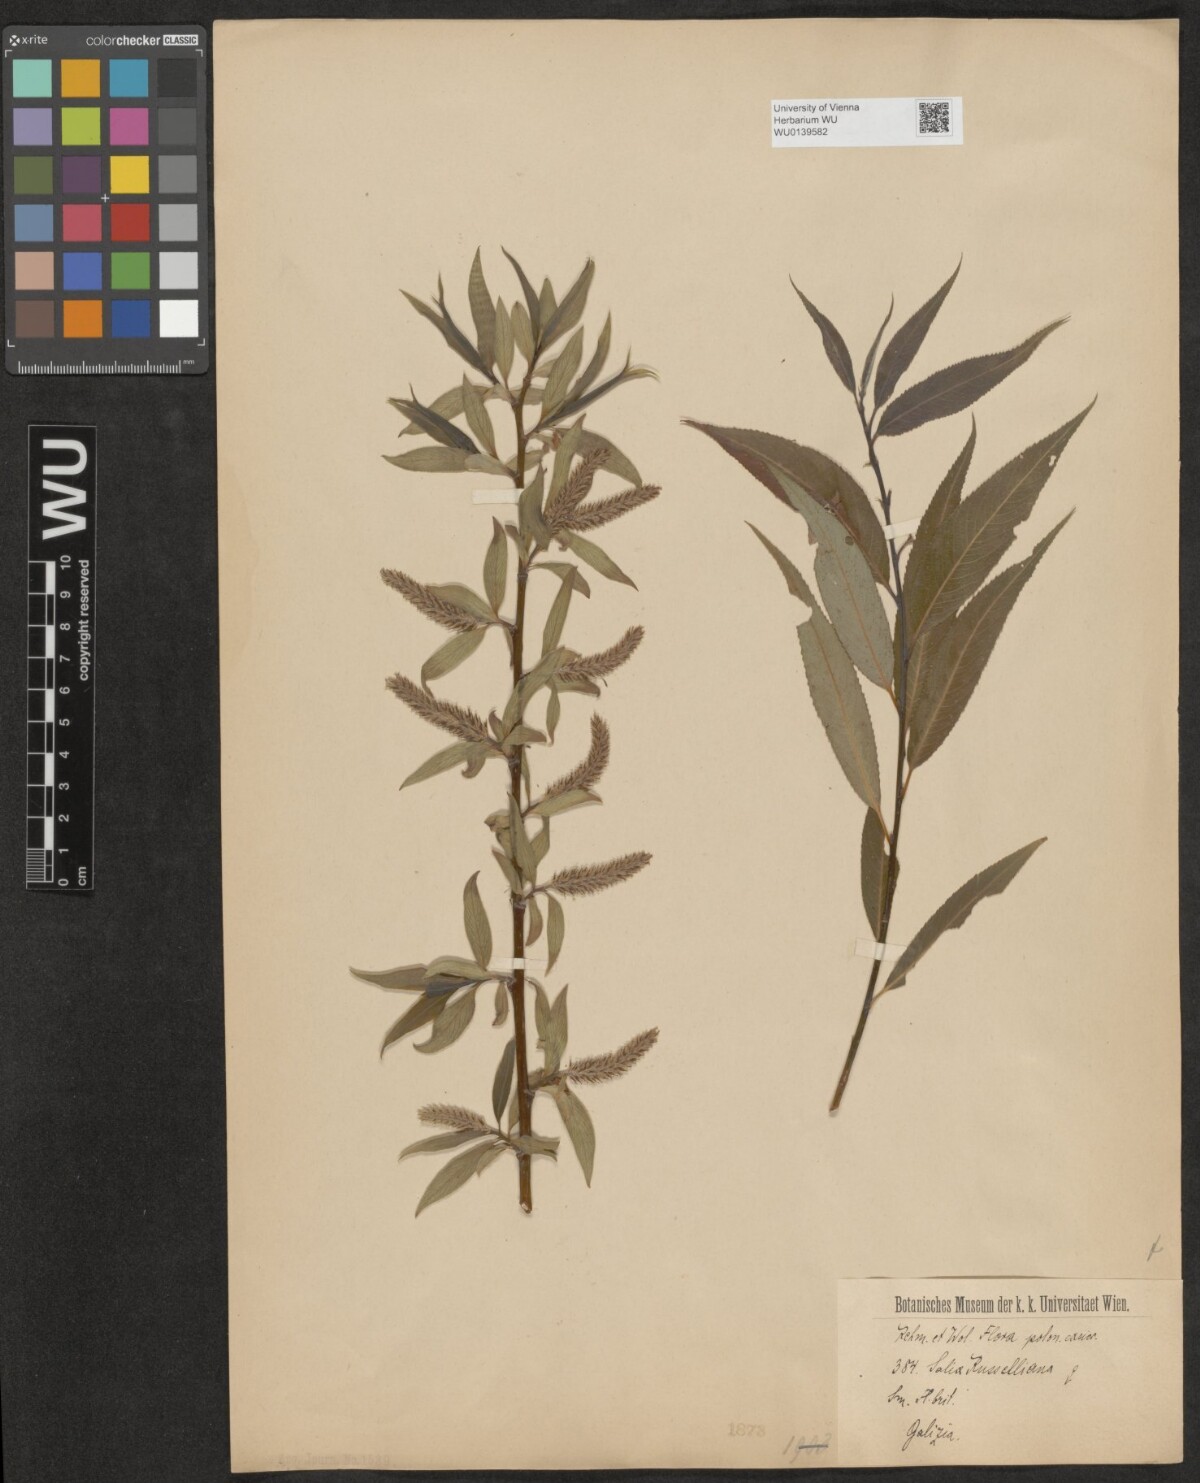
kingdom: Plantae
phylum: Tracheophyta
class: Magnoliopsida
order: Malpighiales
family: Salicaceae
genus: Salix
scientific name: Salix rubens
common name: Hybrid crack willow
